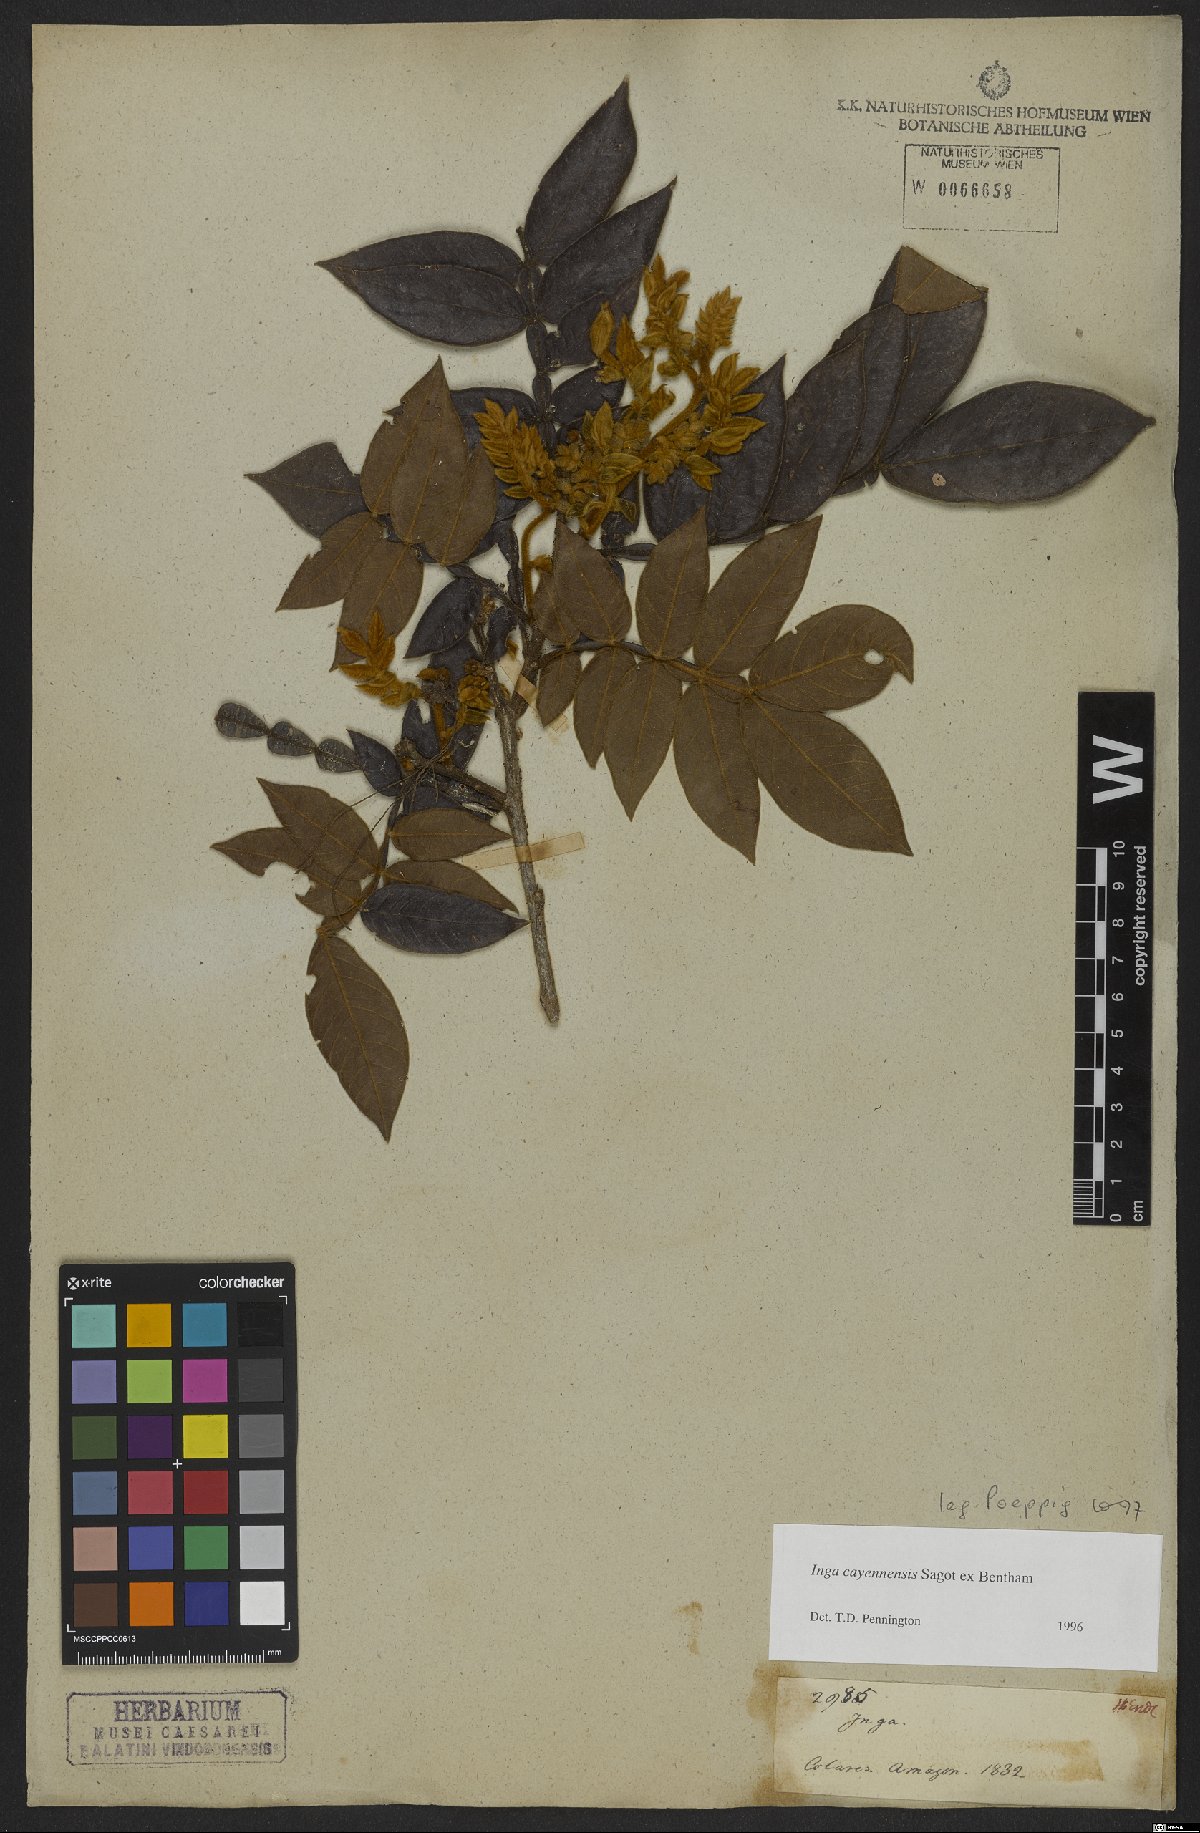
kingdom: Plantae
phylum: Tracheophyta
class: Magnoliopsida
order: Fabales
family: Fabaceae
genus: Inga
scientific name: Inga cayennensis
